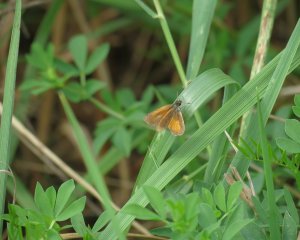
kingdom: Animalia
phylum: Arthropoda
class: Insecta
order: Lepidoptera
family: Hesperiidae
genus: Ancyloxypha
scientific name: Ancyloxypha numitor
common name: Least Skipper
